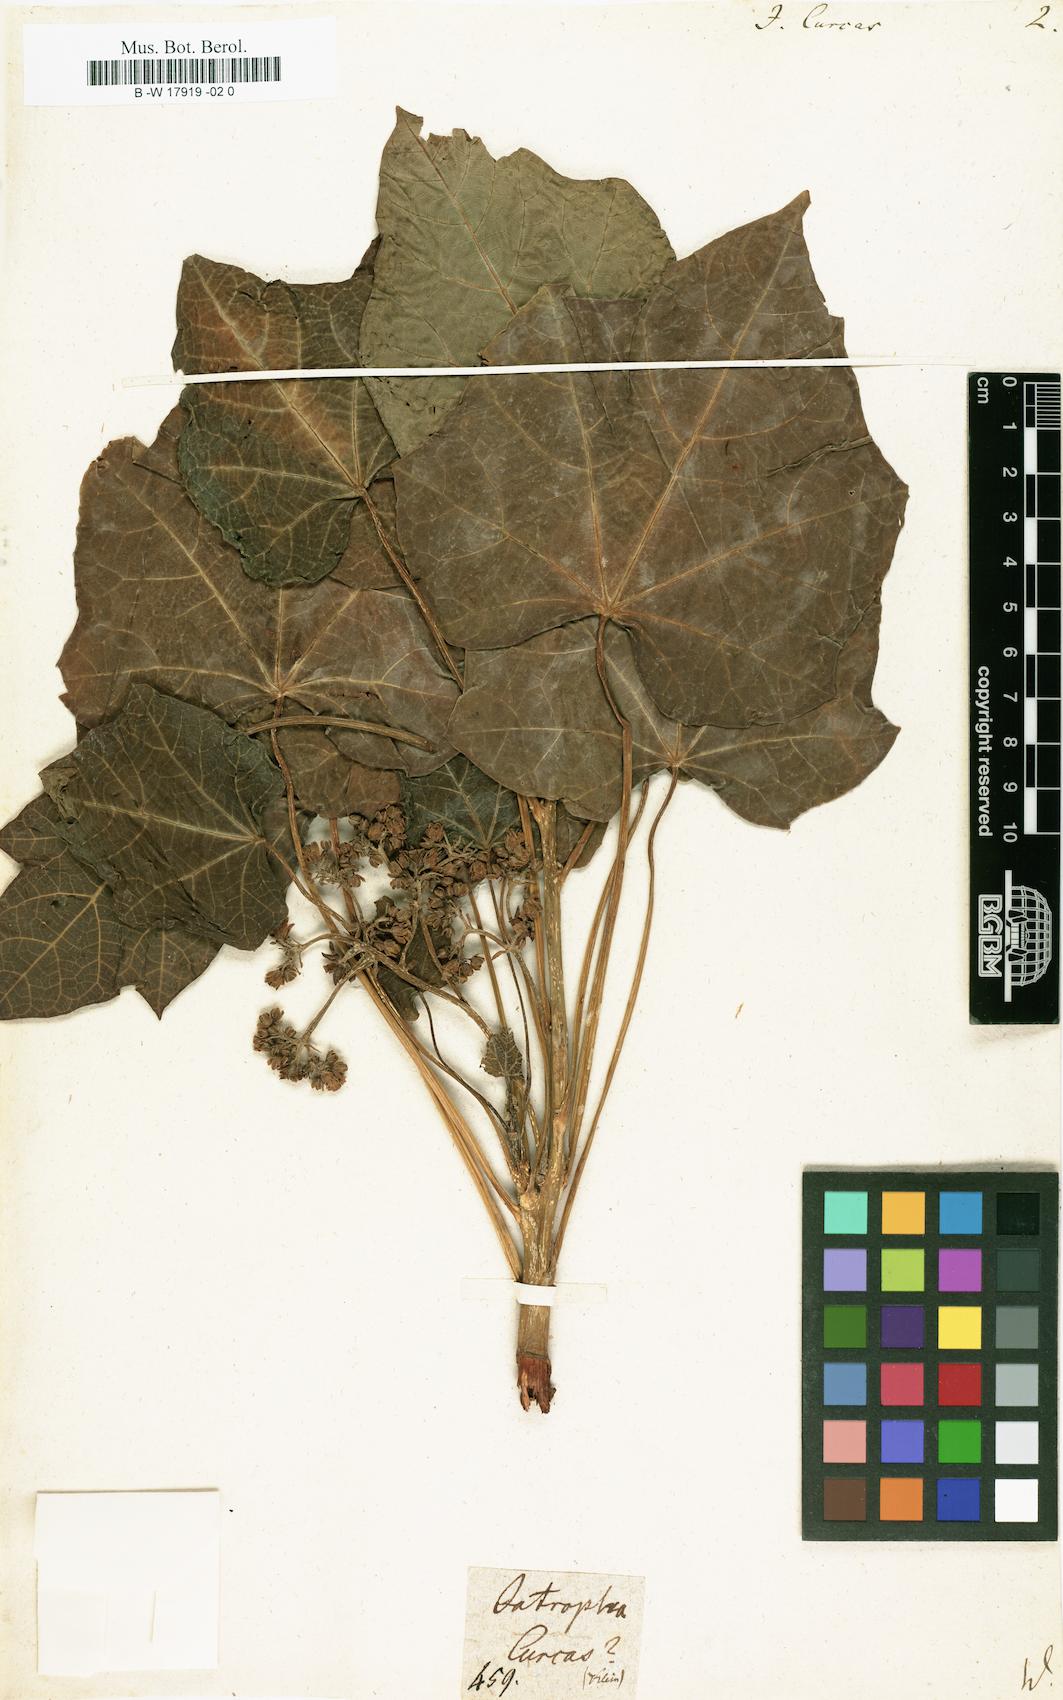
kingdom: Plantae
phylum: Tracheophyta
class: Magnoliopsida
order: Malpighiales
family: Euphorbiaceae
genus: Jatropha
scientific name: Jatropha curcas
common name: Barbados nut
